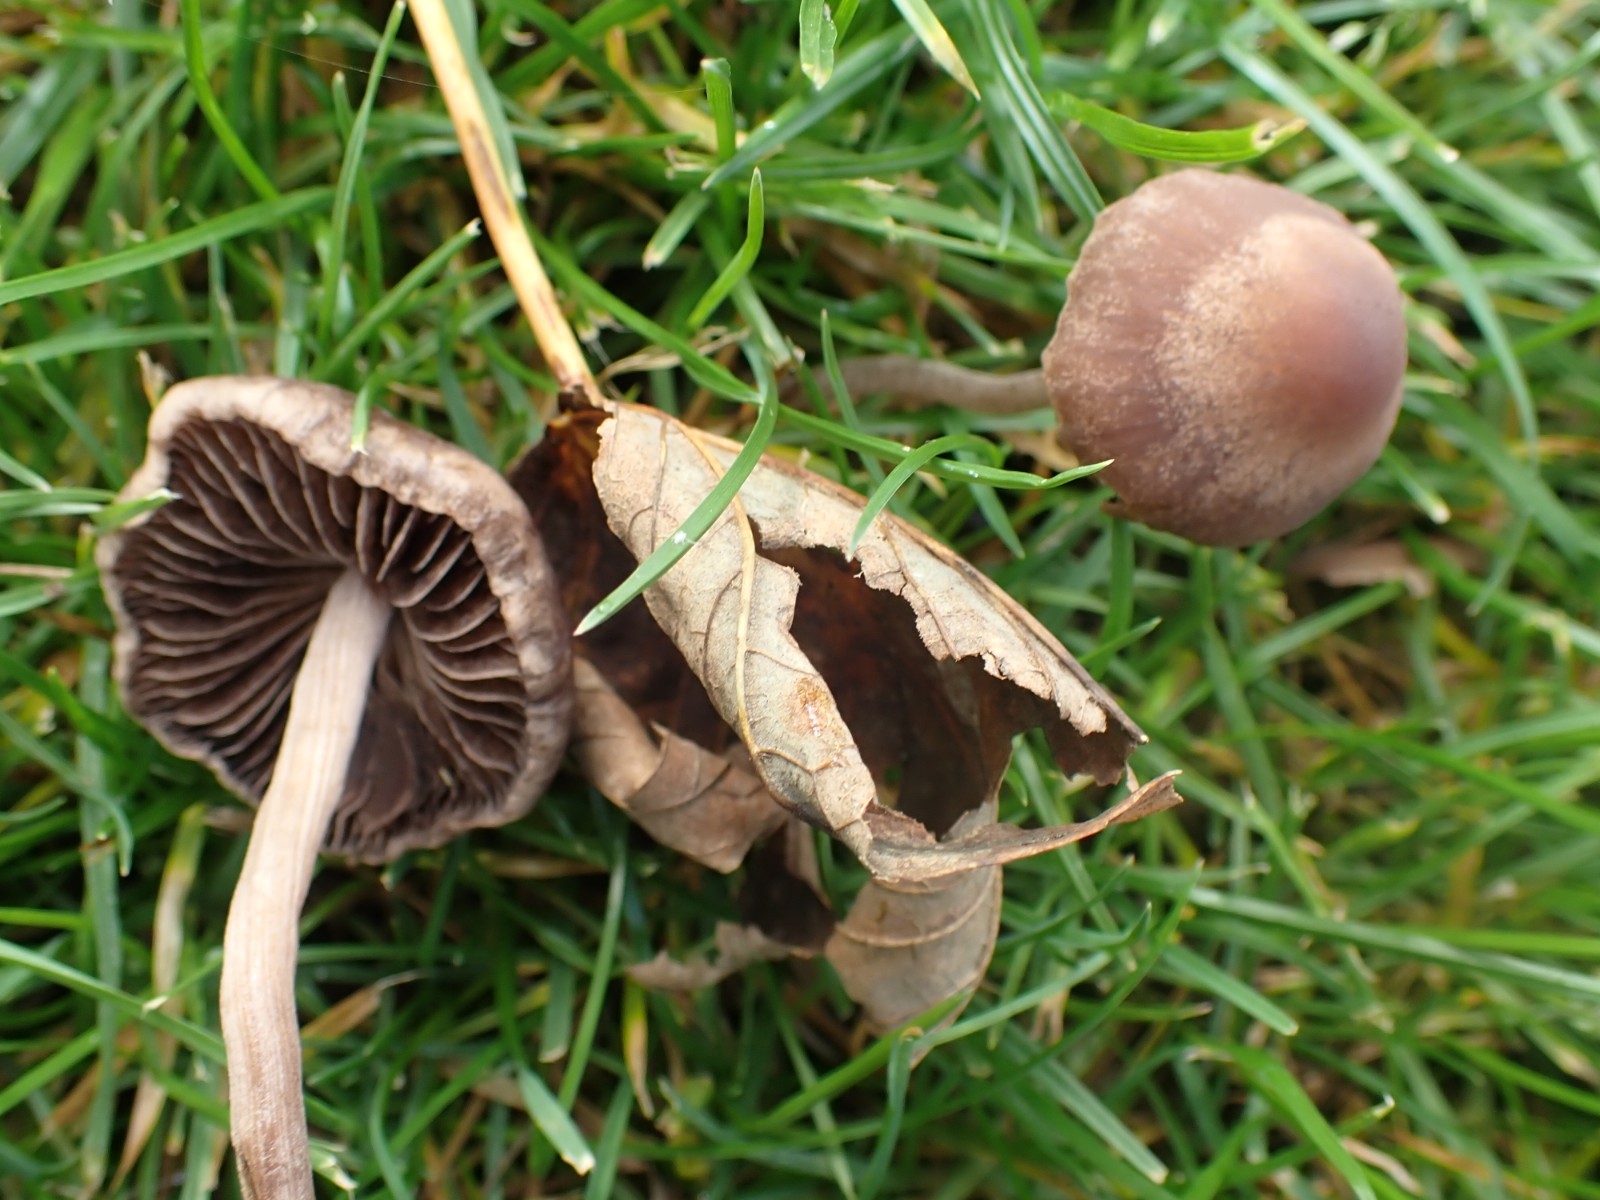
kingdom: Fungi
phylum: Basidiomycota
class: Agaricomycetes
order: Agaricales
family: Bolbitiaceae
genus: Panaeolina
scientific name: Panaeolina foenisecii
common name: høslætsvamp
